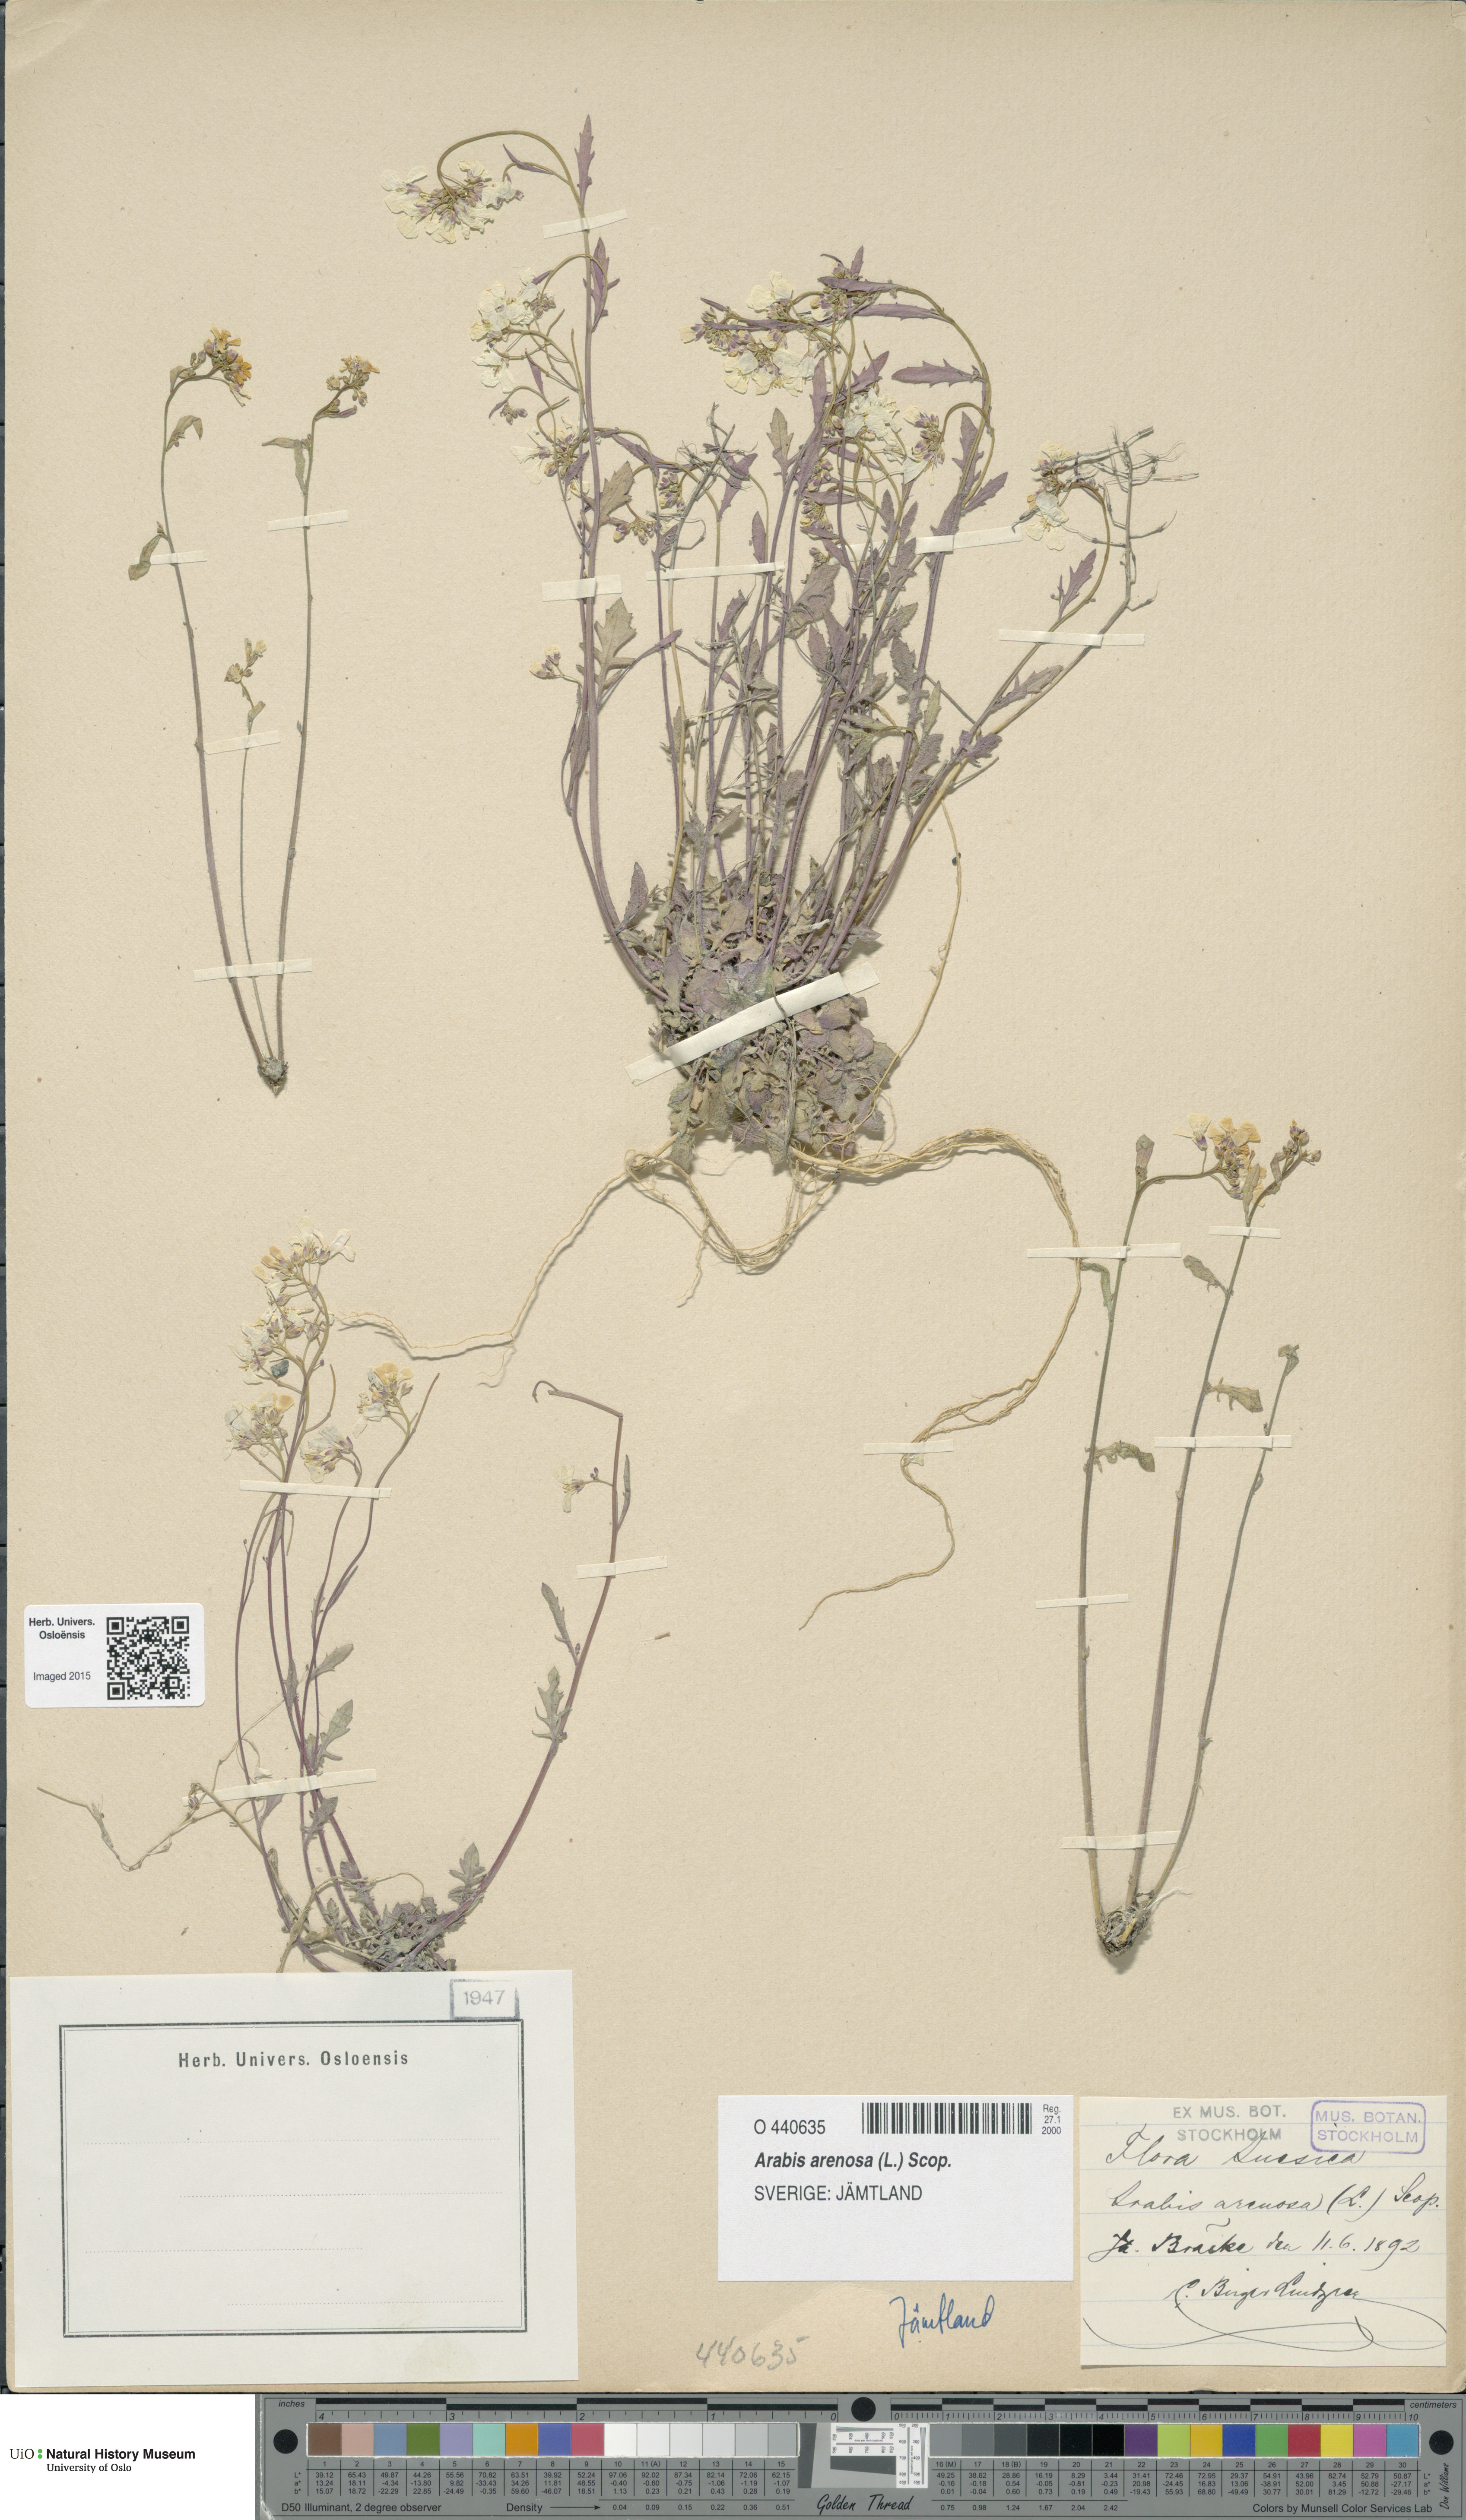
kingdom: Plantae
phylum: Tracheophyta
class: Magnoliopsida
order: Brassicales
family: Brassicaceae
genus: Arabidopsis
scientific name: Arabidopsis arenosa
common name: Sand rock-cress
